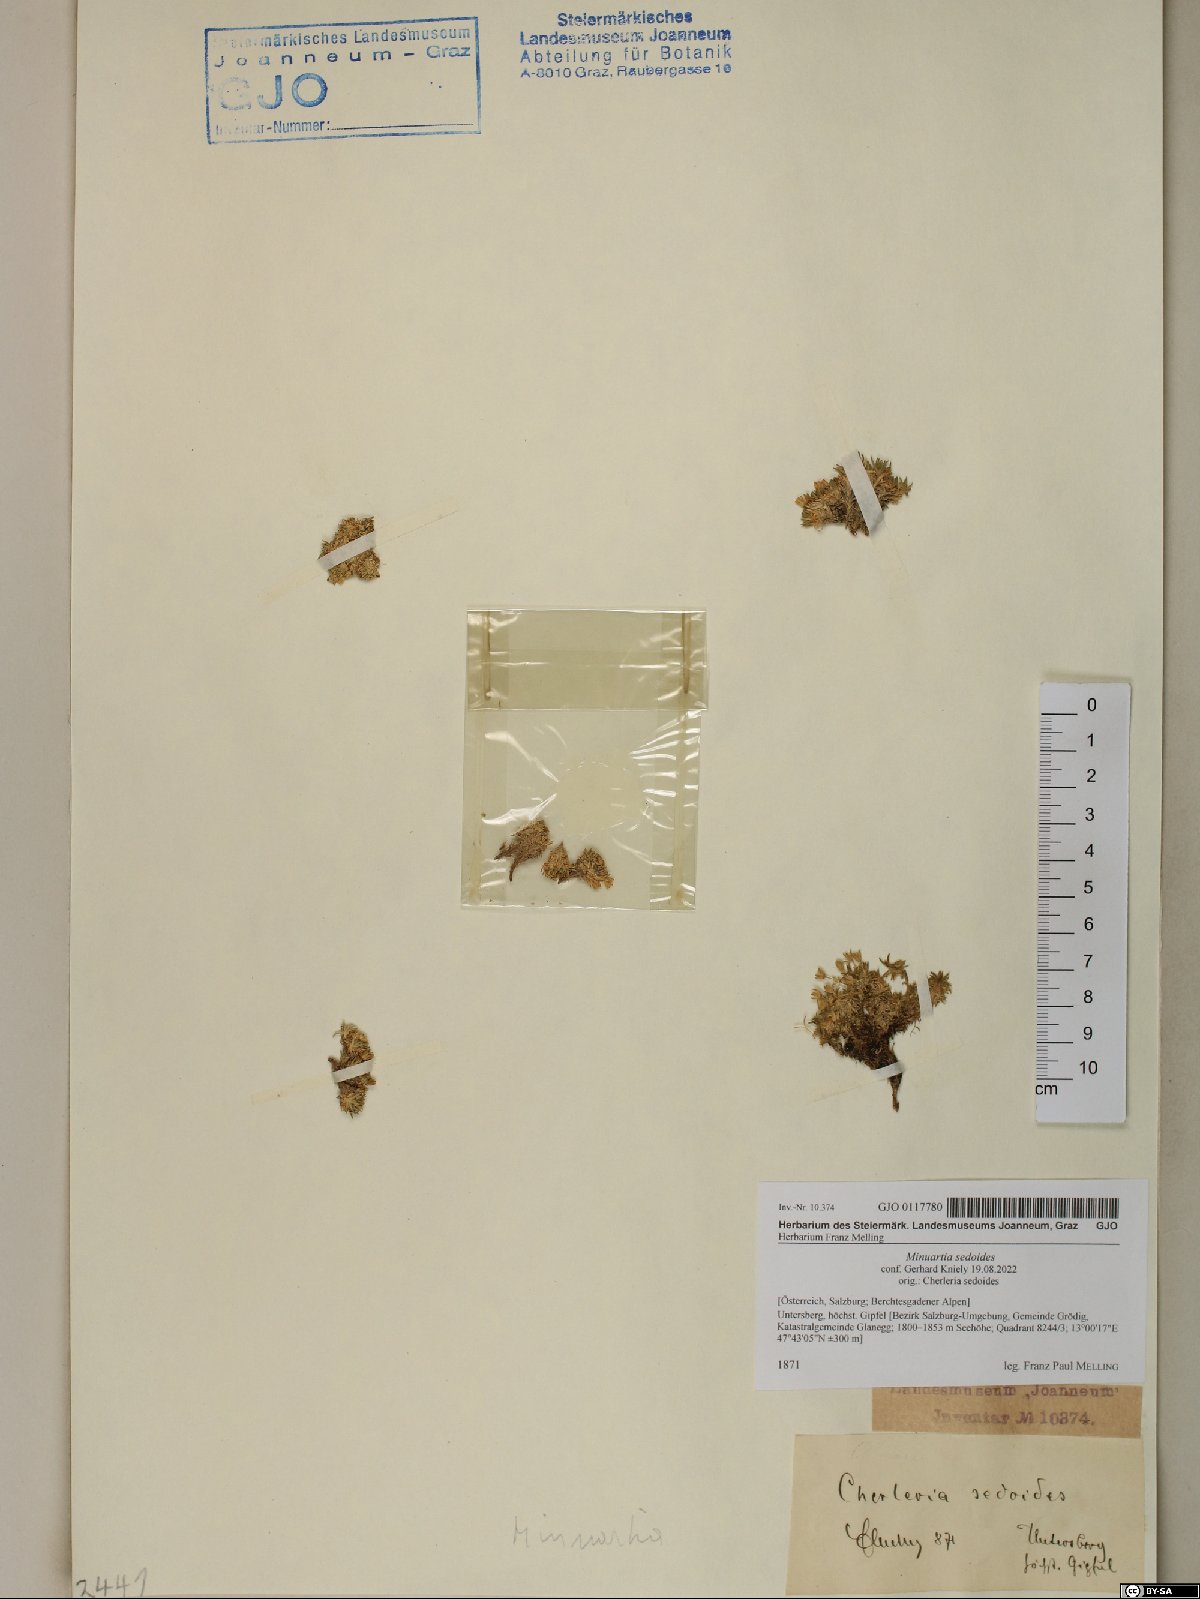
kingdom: Plantae
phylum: Tracheophyta
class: Magnoliopsida
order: Caryophyllales
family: Caryophyllaceae
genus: Cherleria
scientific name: Cherleria sedoides
